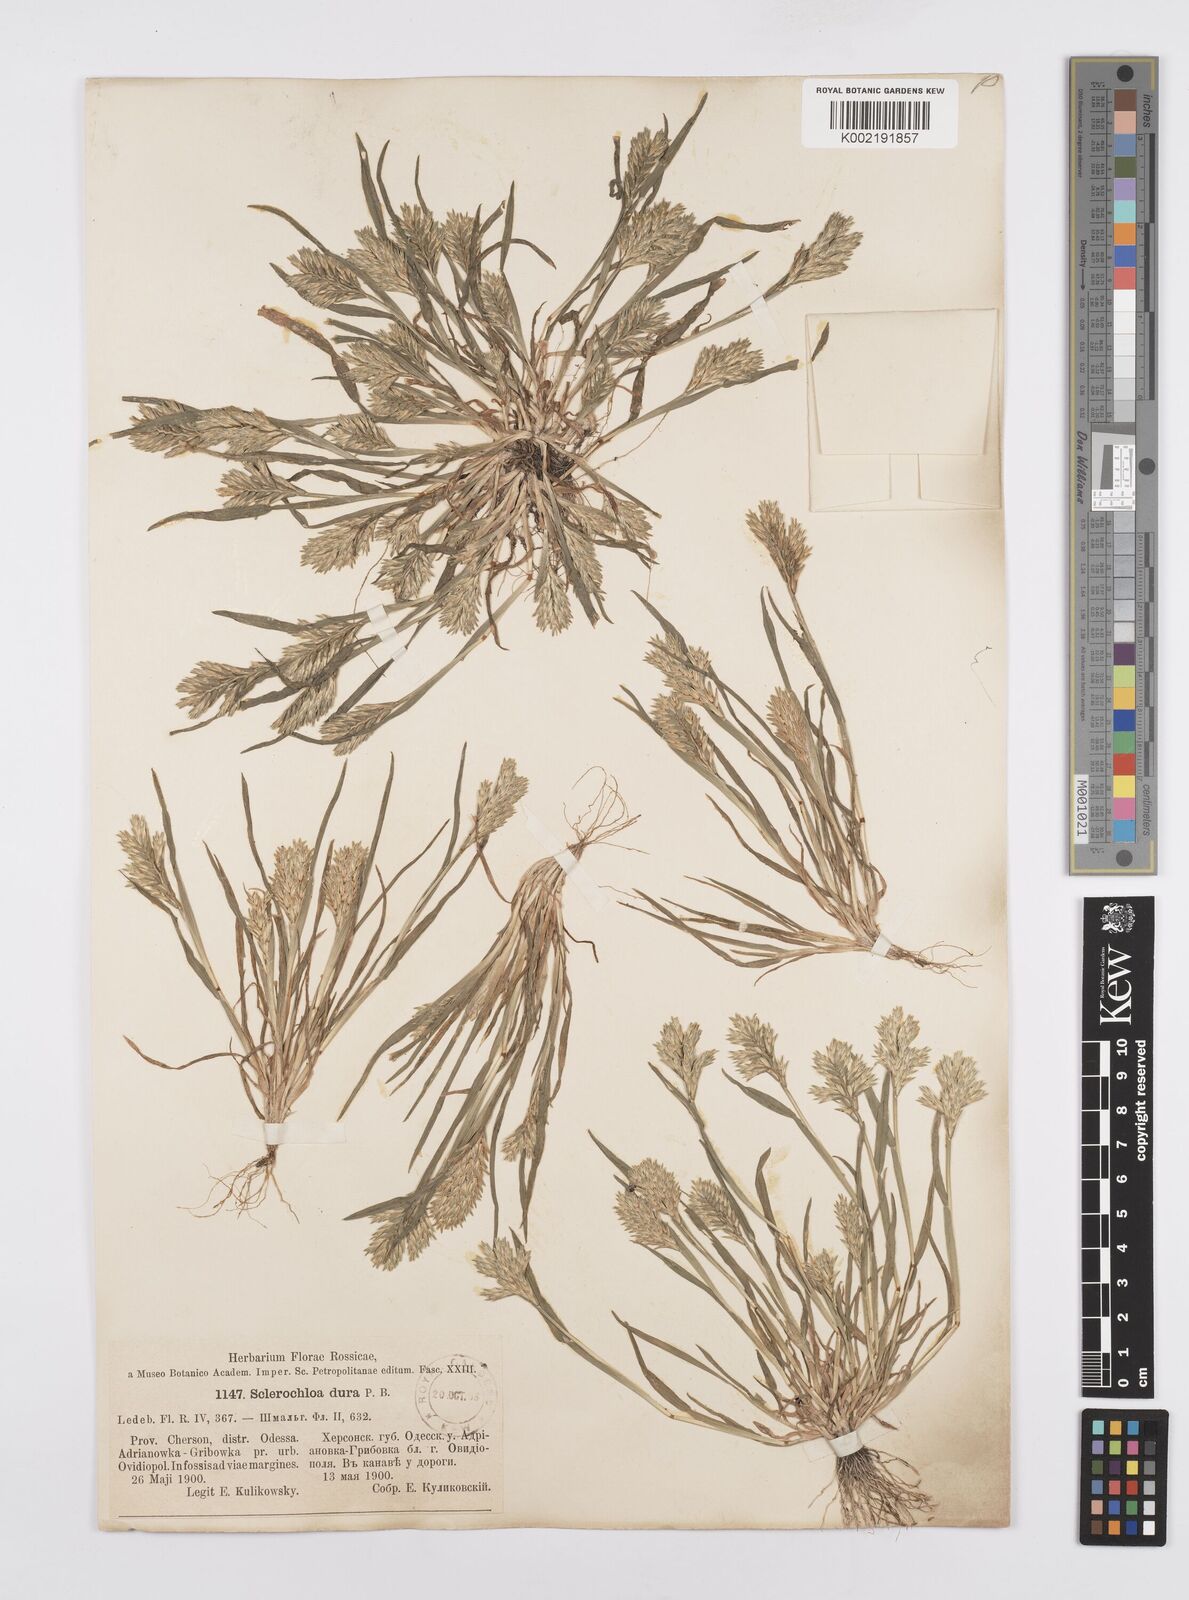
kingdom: Plantae
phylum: Tracheophyta
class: Liliopsida
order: Poales
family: Poaceae
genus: Sclerochloa
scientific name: Sclerochloa dura
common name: Common hardgrass
